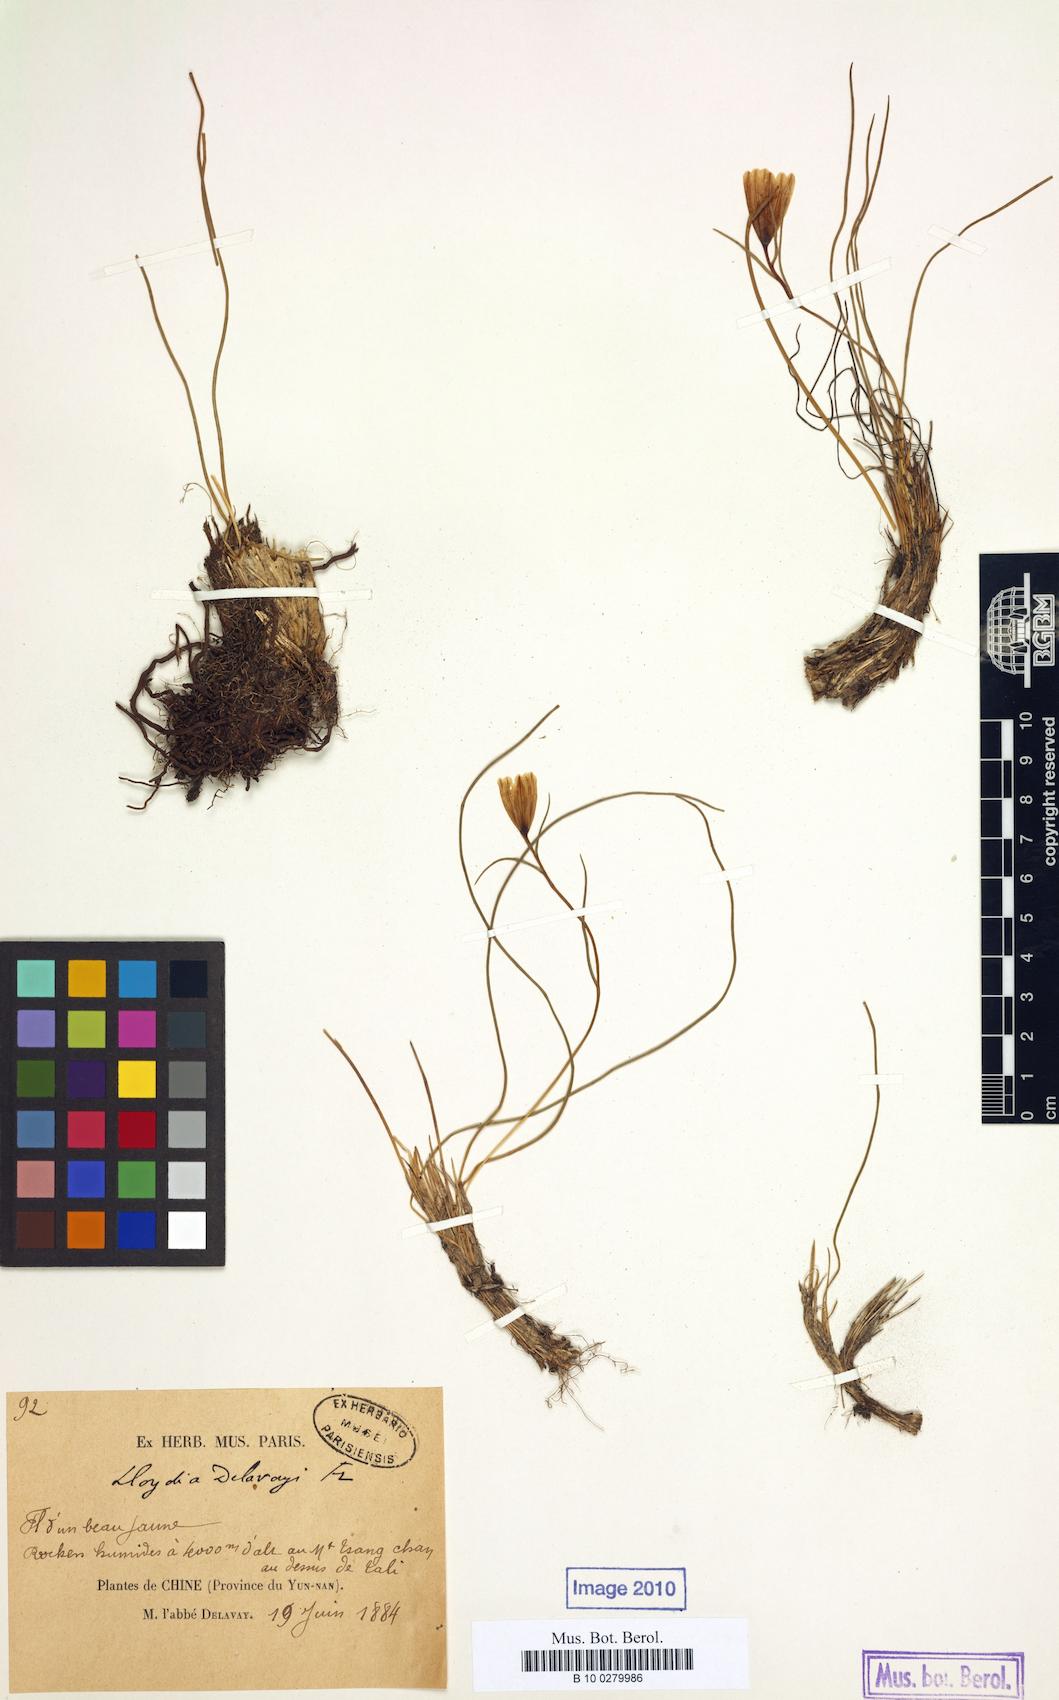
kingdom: Plantae
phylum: Tracheophyta
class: Liliopsida
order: Liliales
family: Liliaceae
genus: Gagea
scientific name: Gagea delavayi
